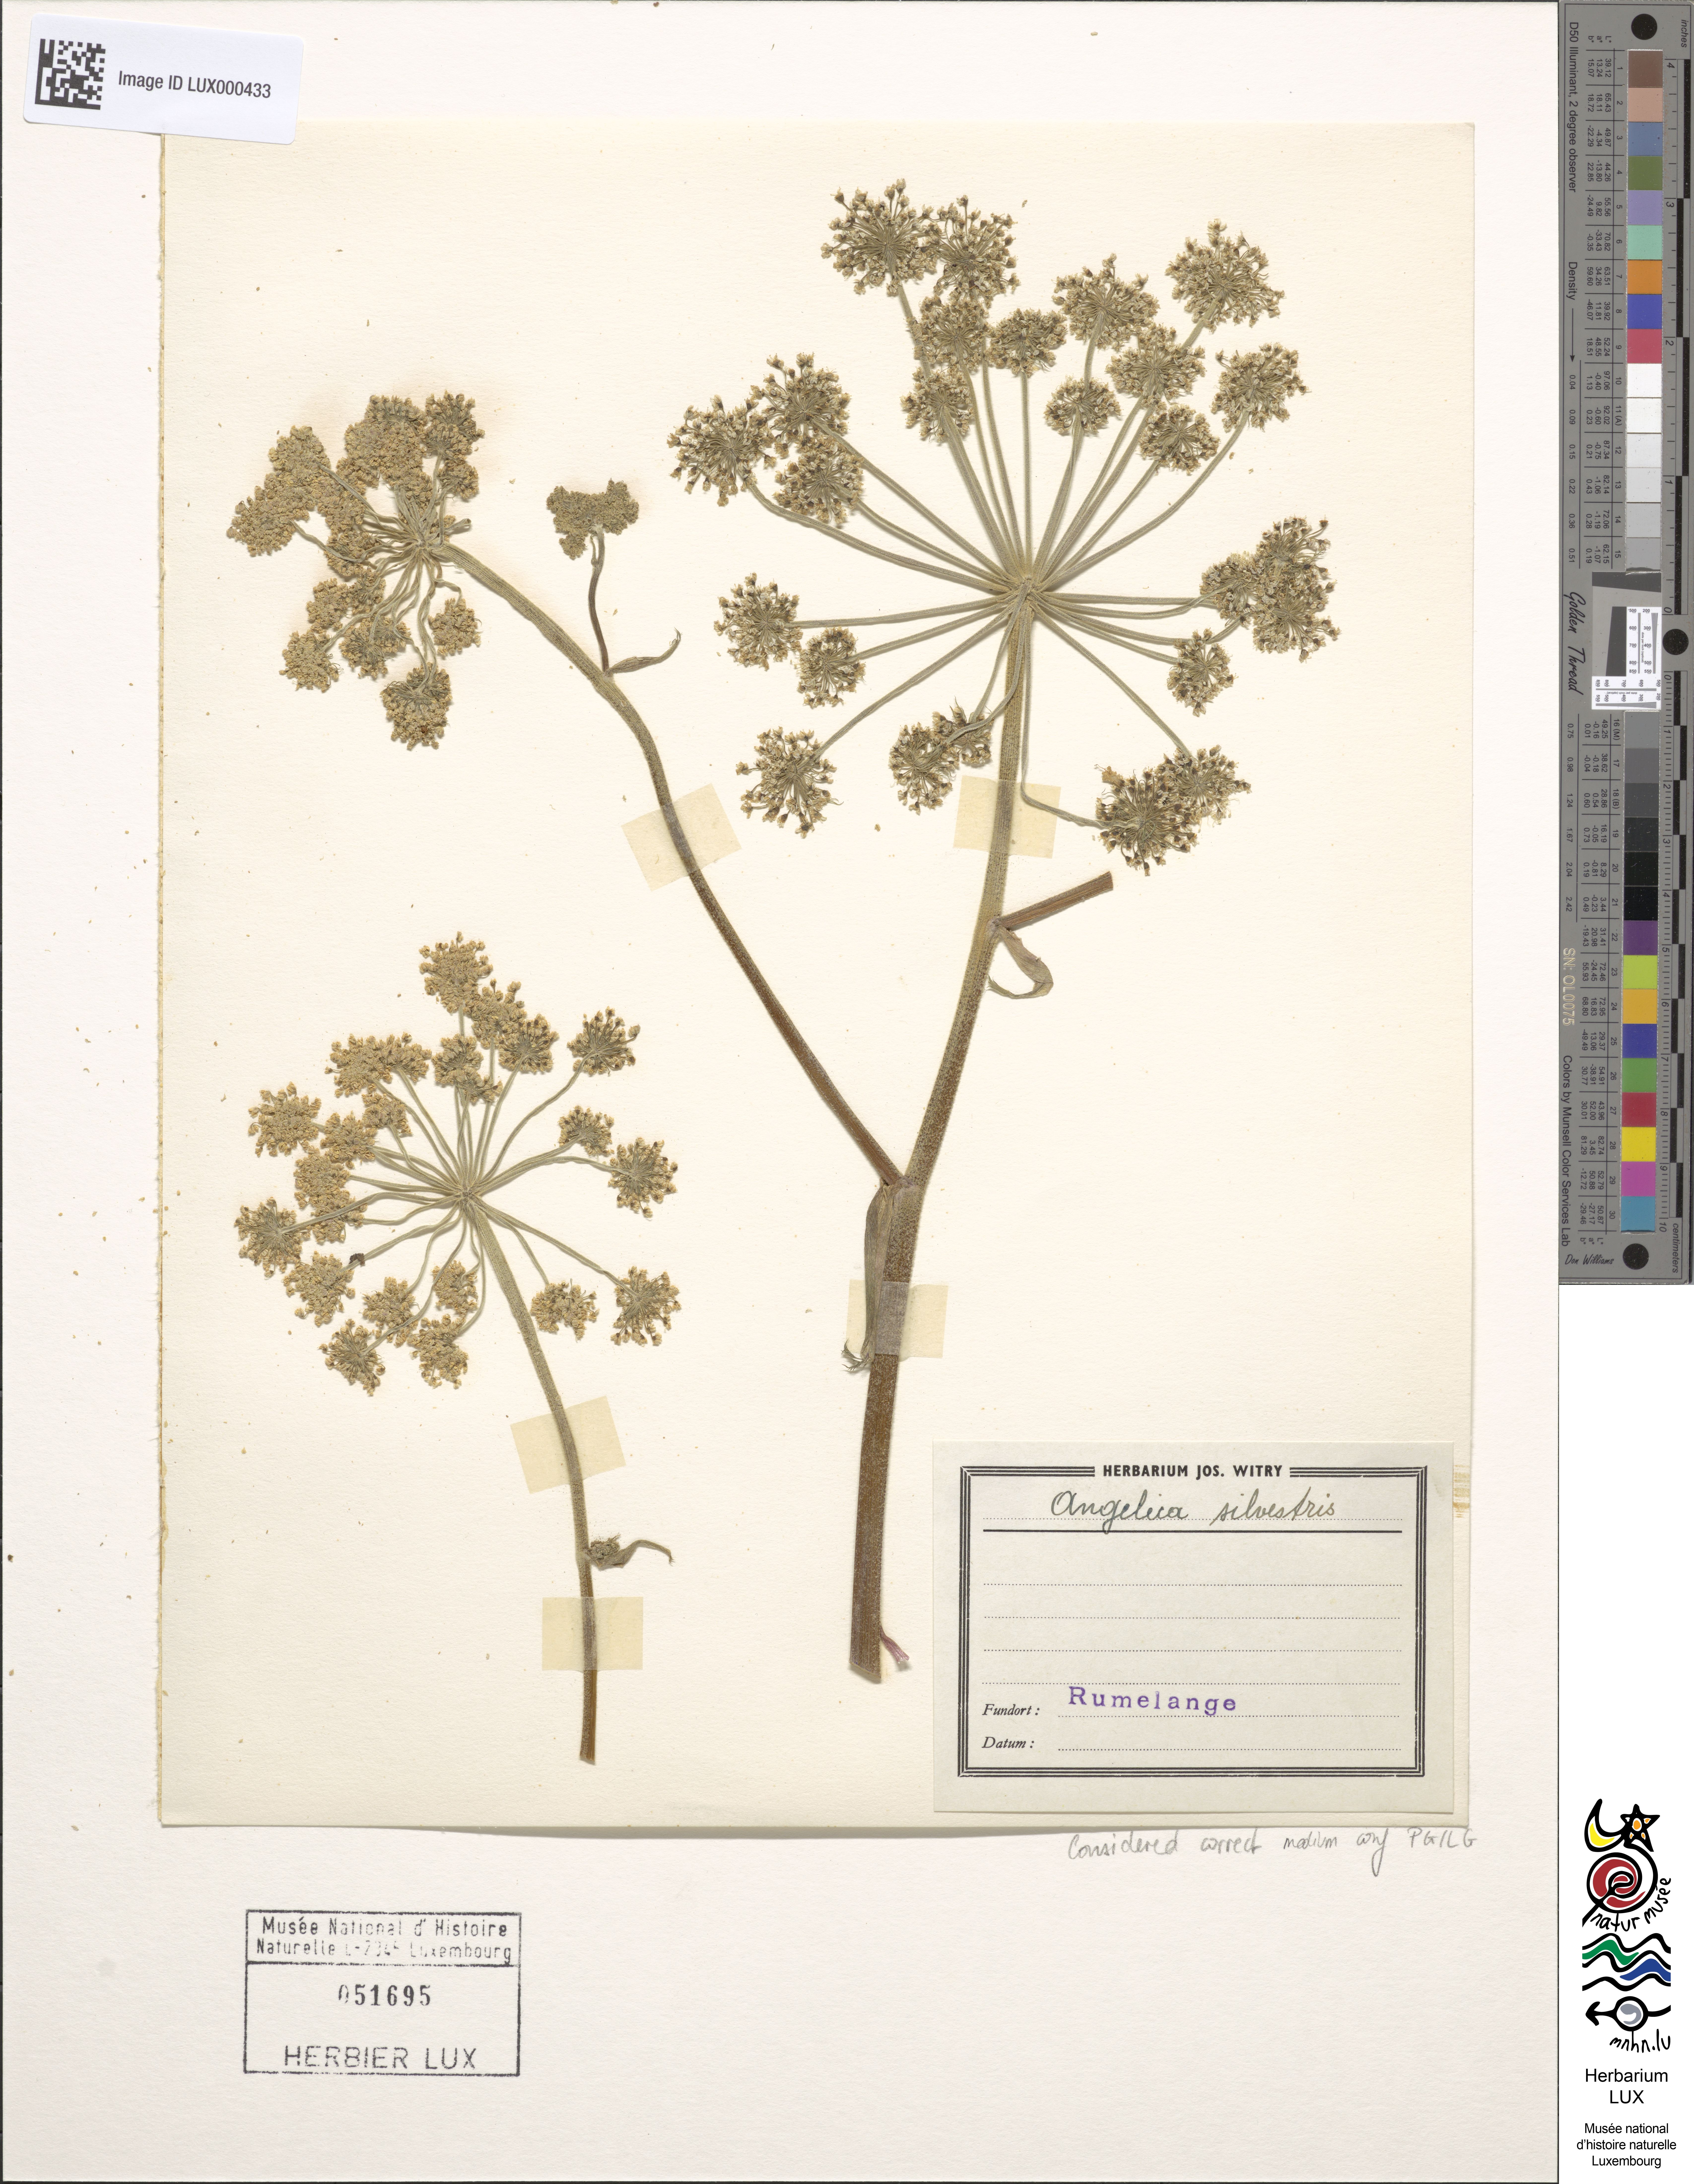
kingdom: Plantae
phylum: Tracheophyta
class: Magnoliopsida
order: Apiales
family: Apiaceae
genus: Angelica
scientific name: Angelica sylvestris
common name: Wild angelica
